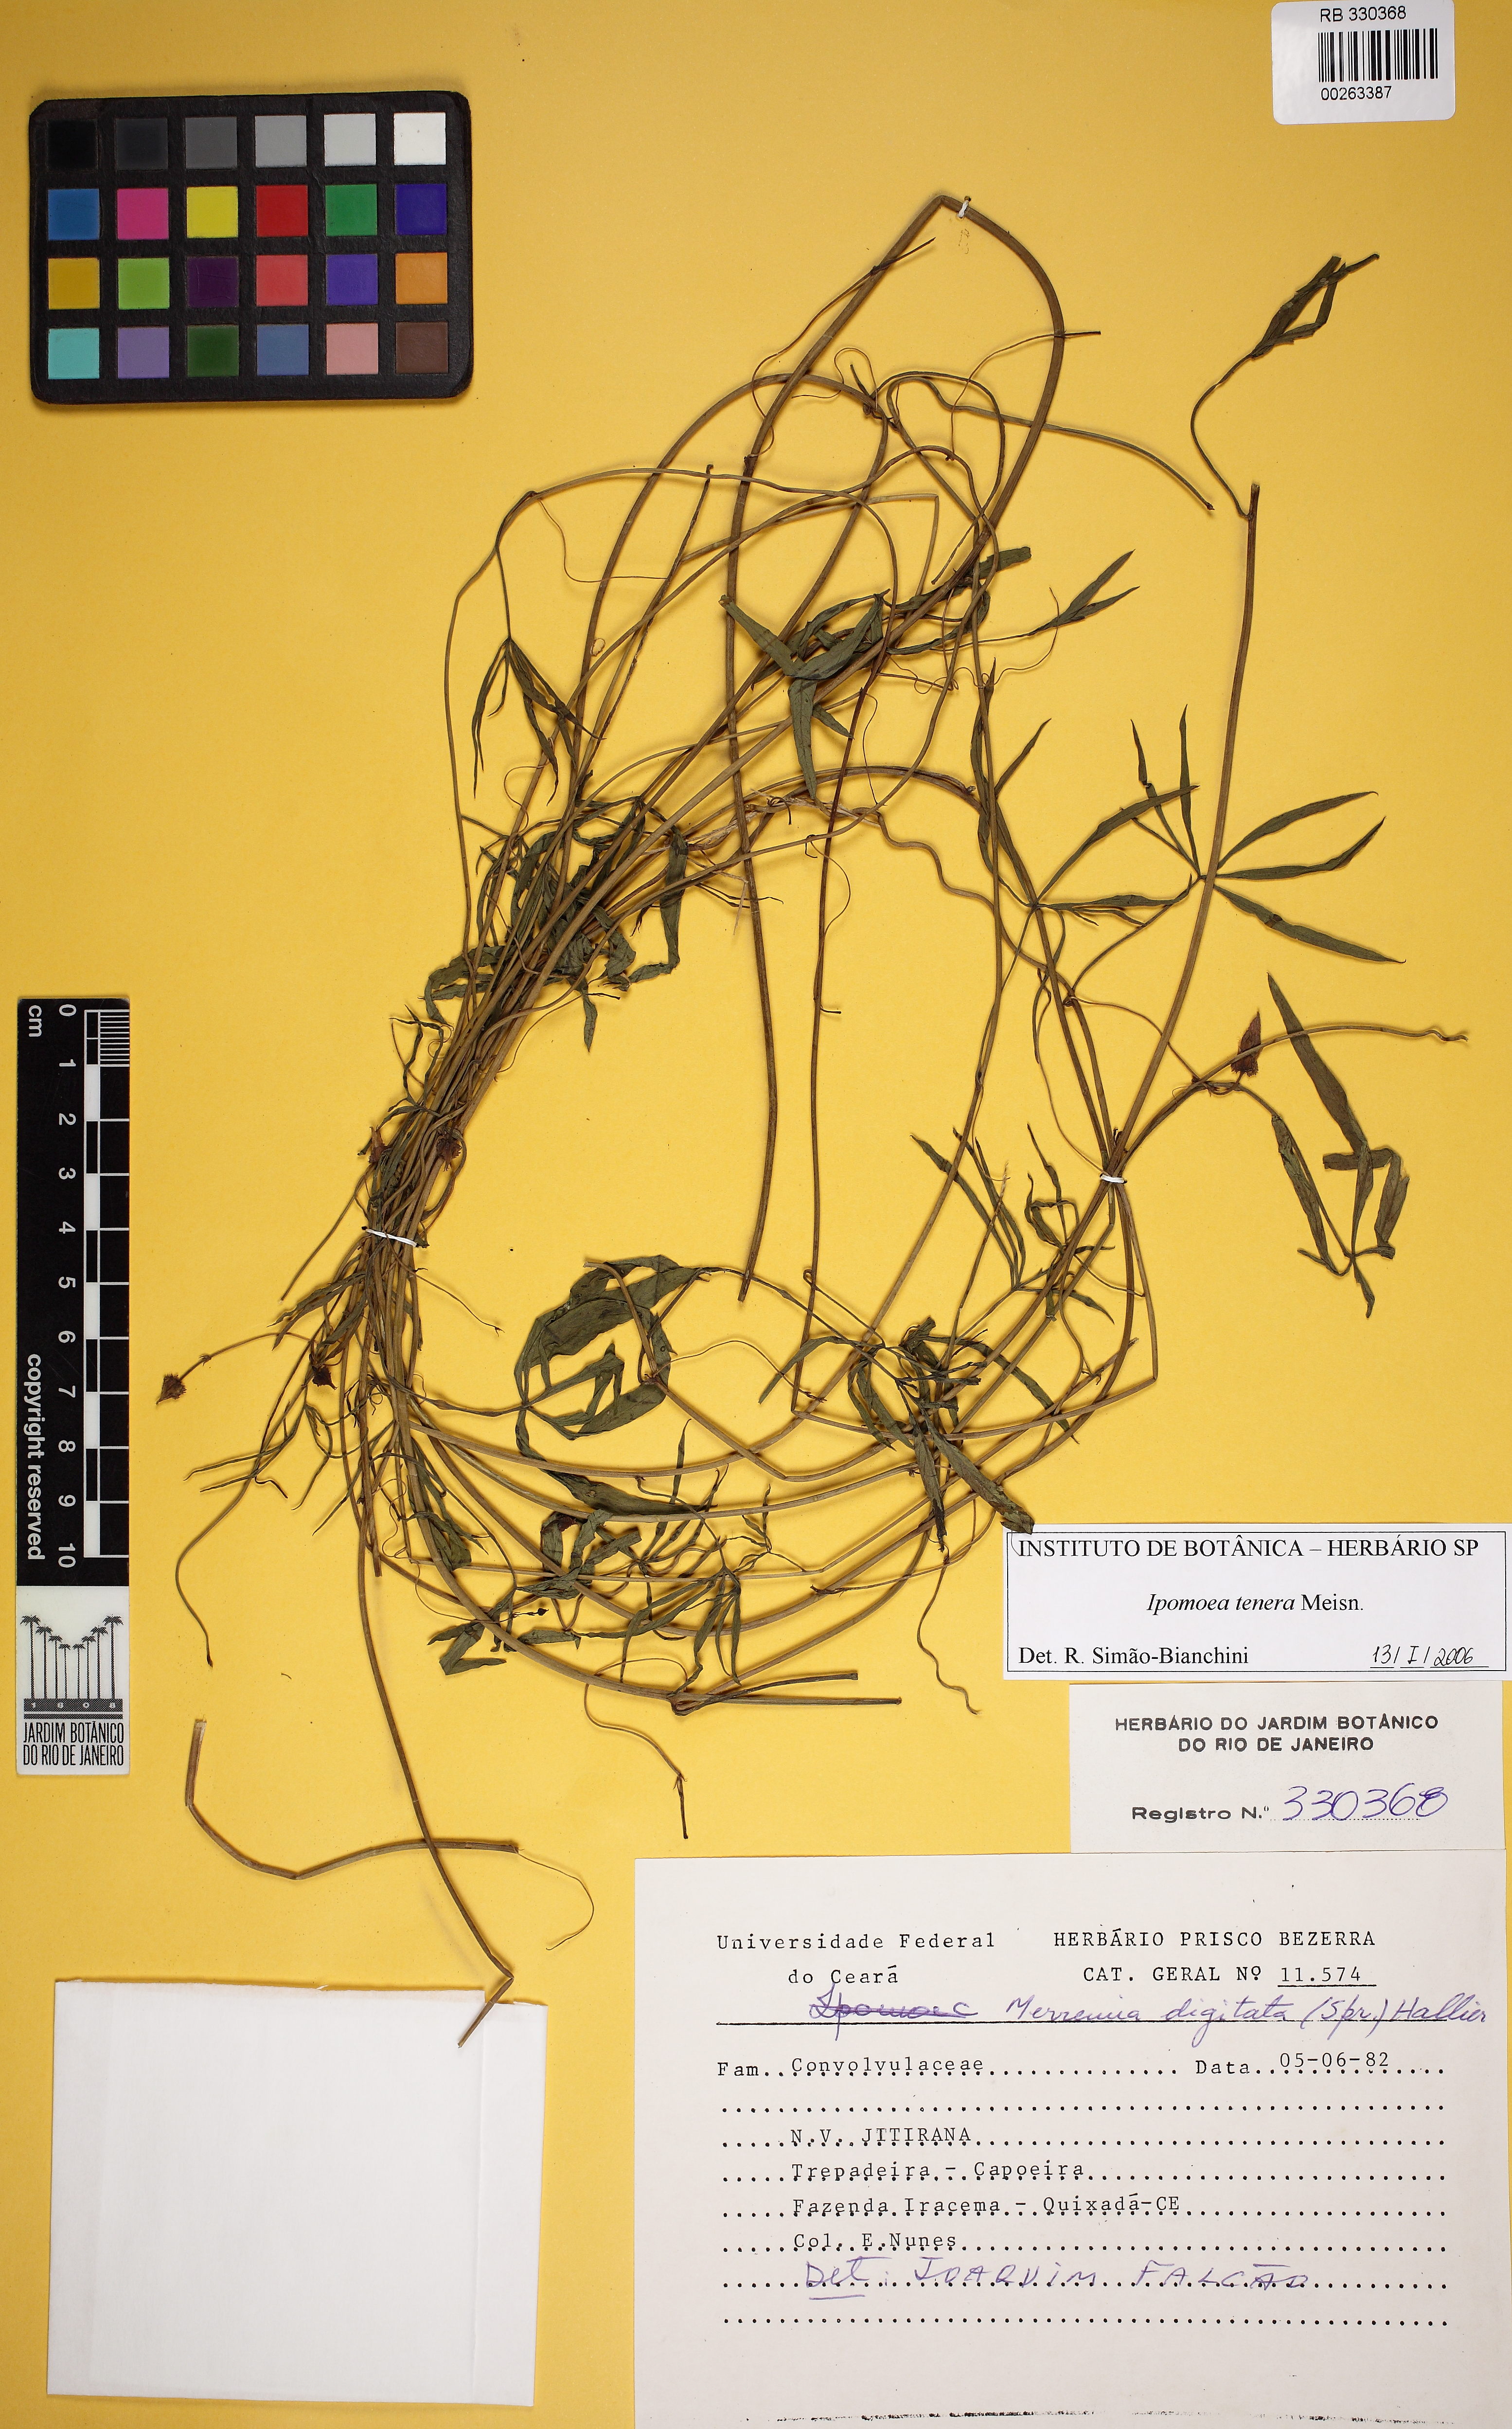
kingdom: Plantae
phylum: Tracheophyta
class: Magnoliopsida
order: Solanales
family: Convolvulaceae
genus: Ipomoea
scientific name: Ipomoea tenera
